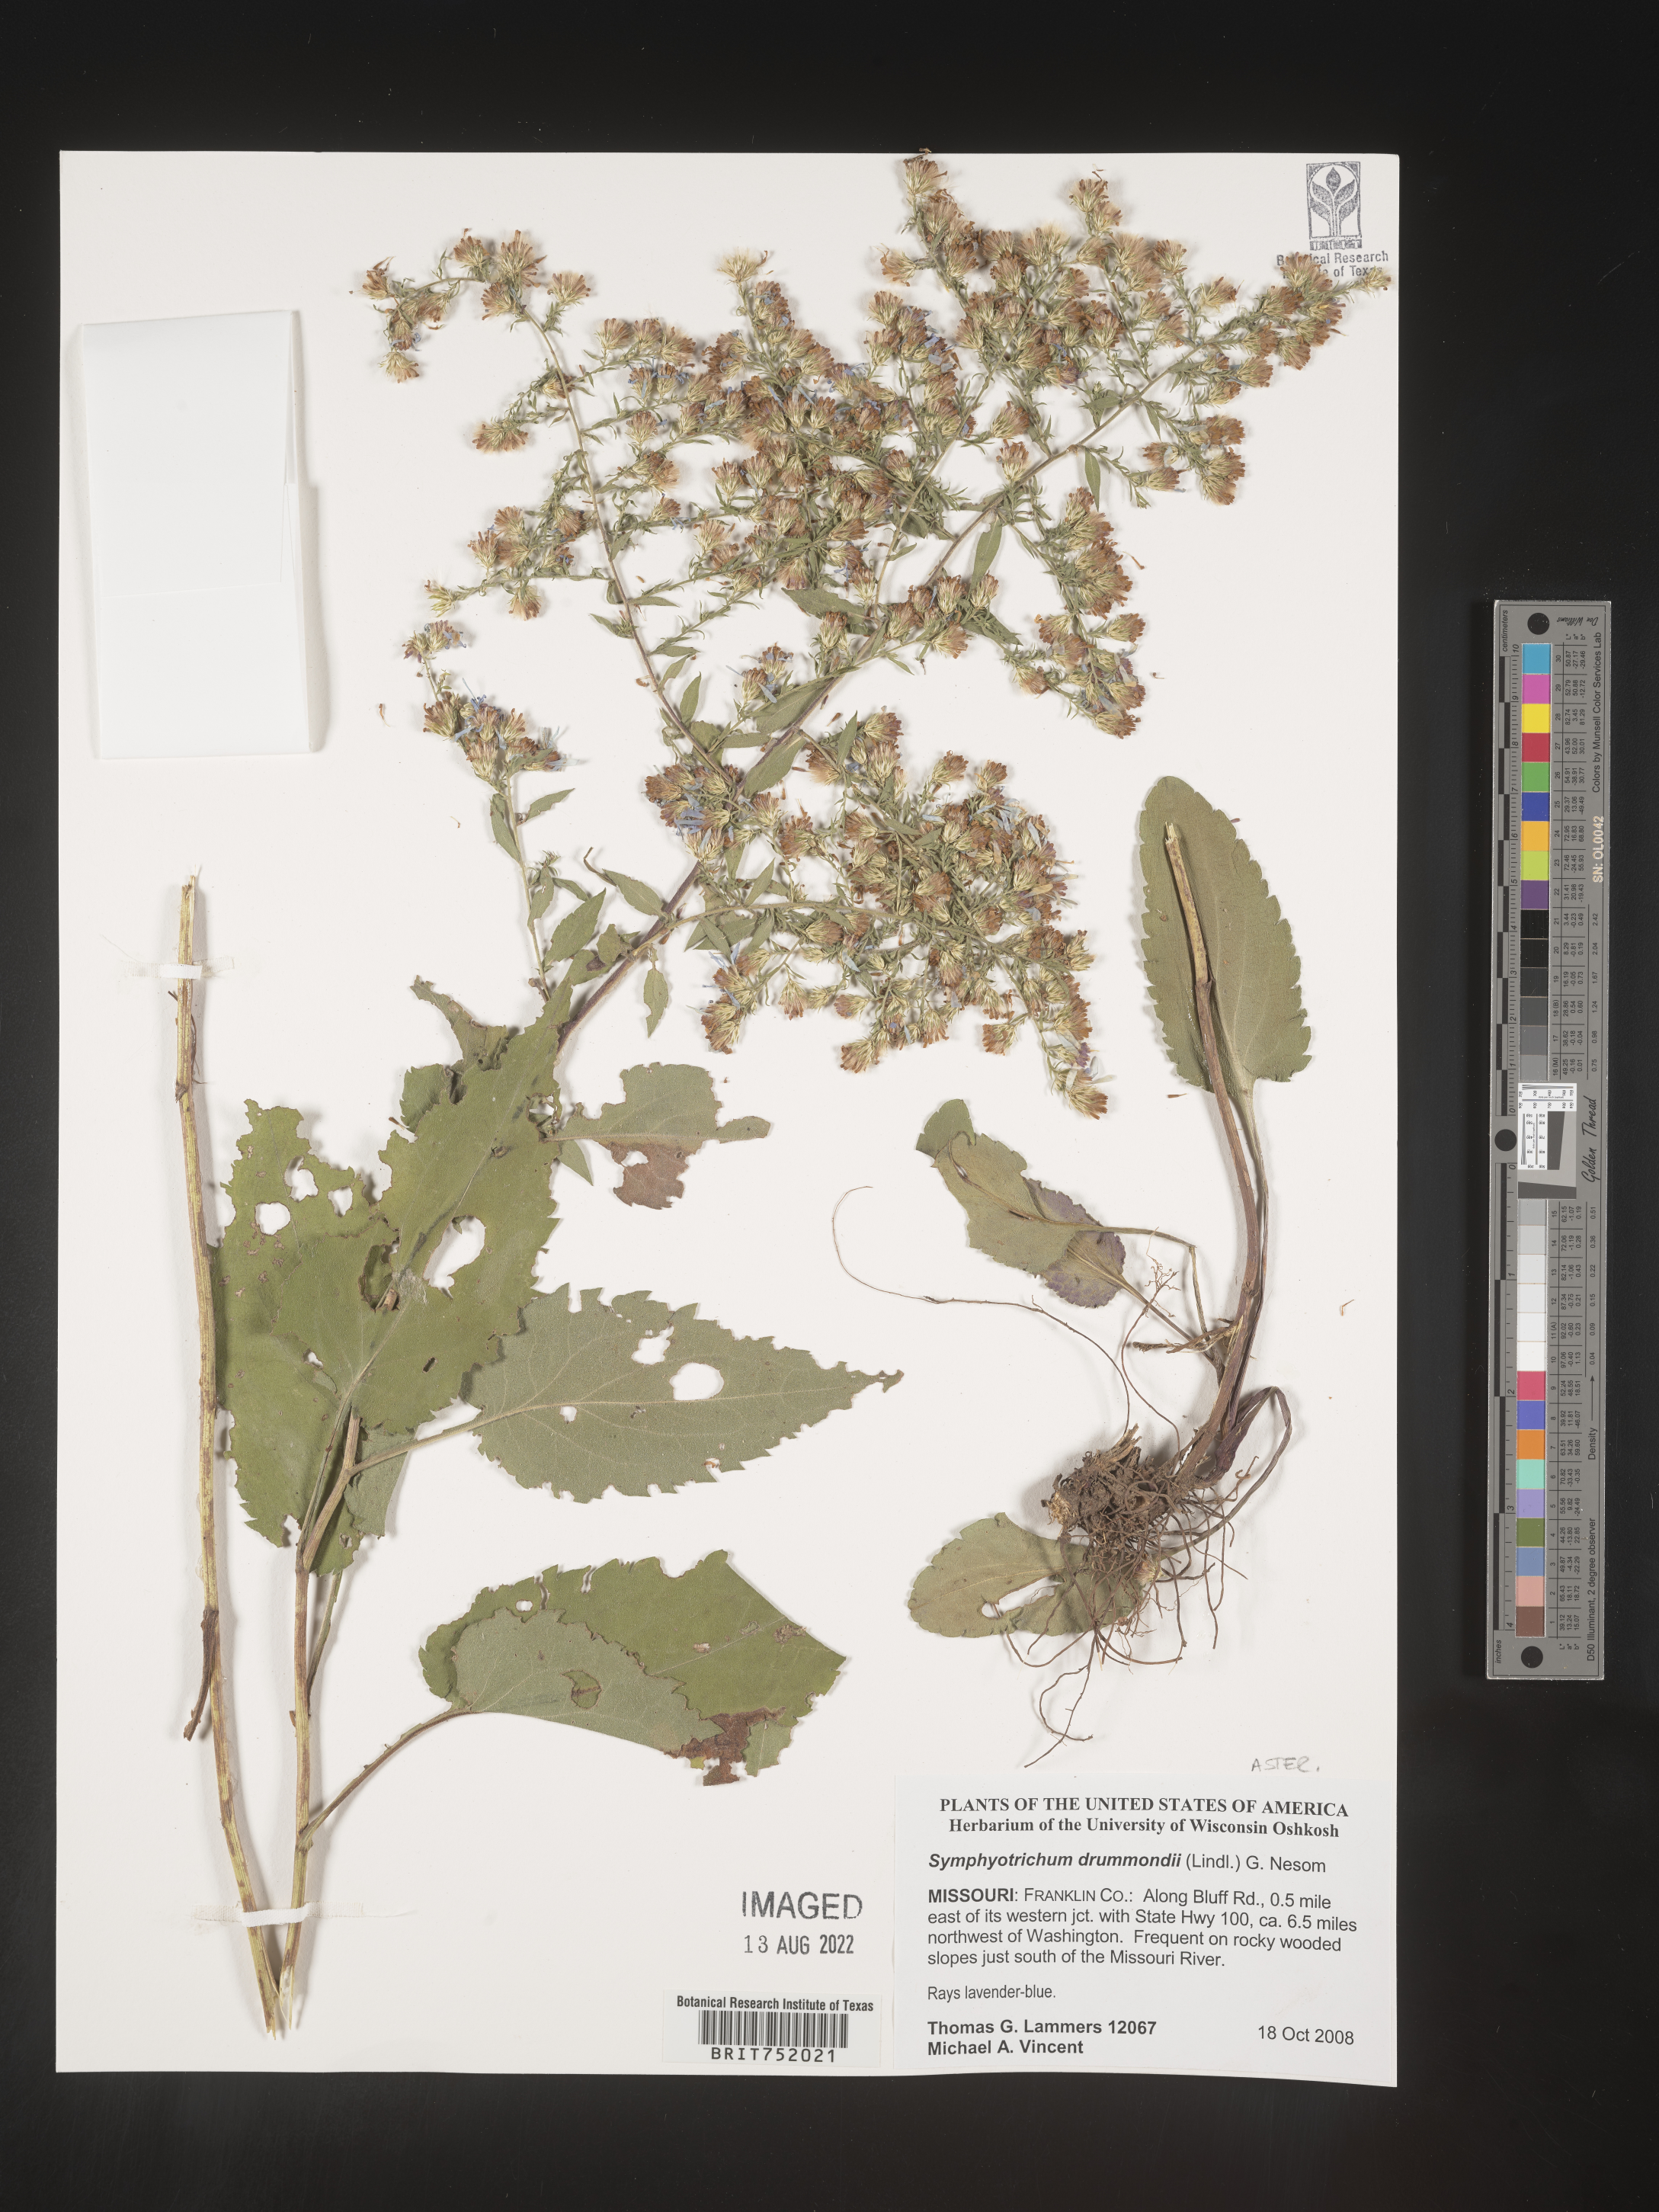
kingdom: Plantae
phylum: Tracheophyta
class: Magnoliopsida
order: Asterales
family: Asteraceae
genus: Symphyotrichum
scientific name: Symphyotrichum drummondii
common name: Drummond's aster
